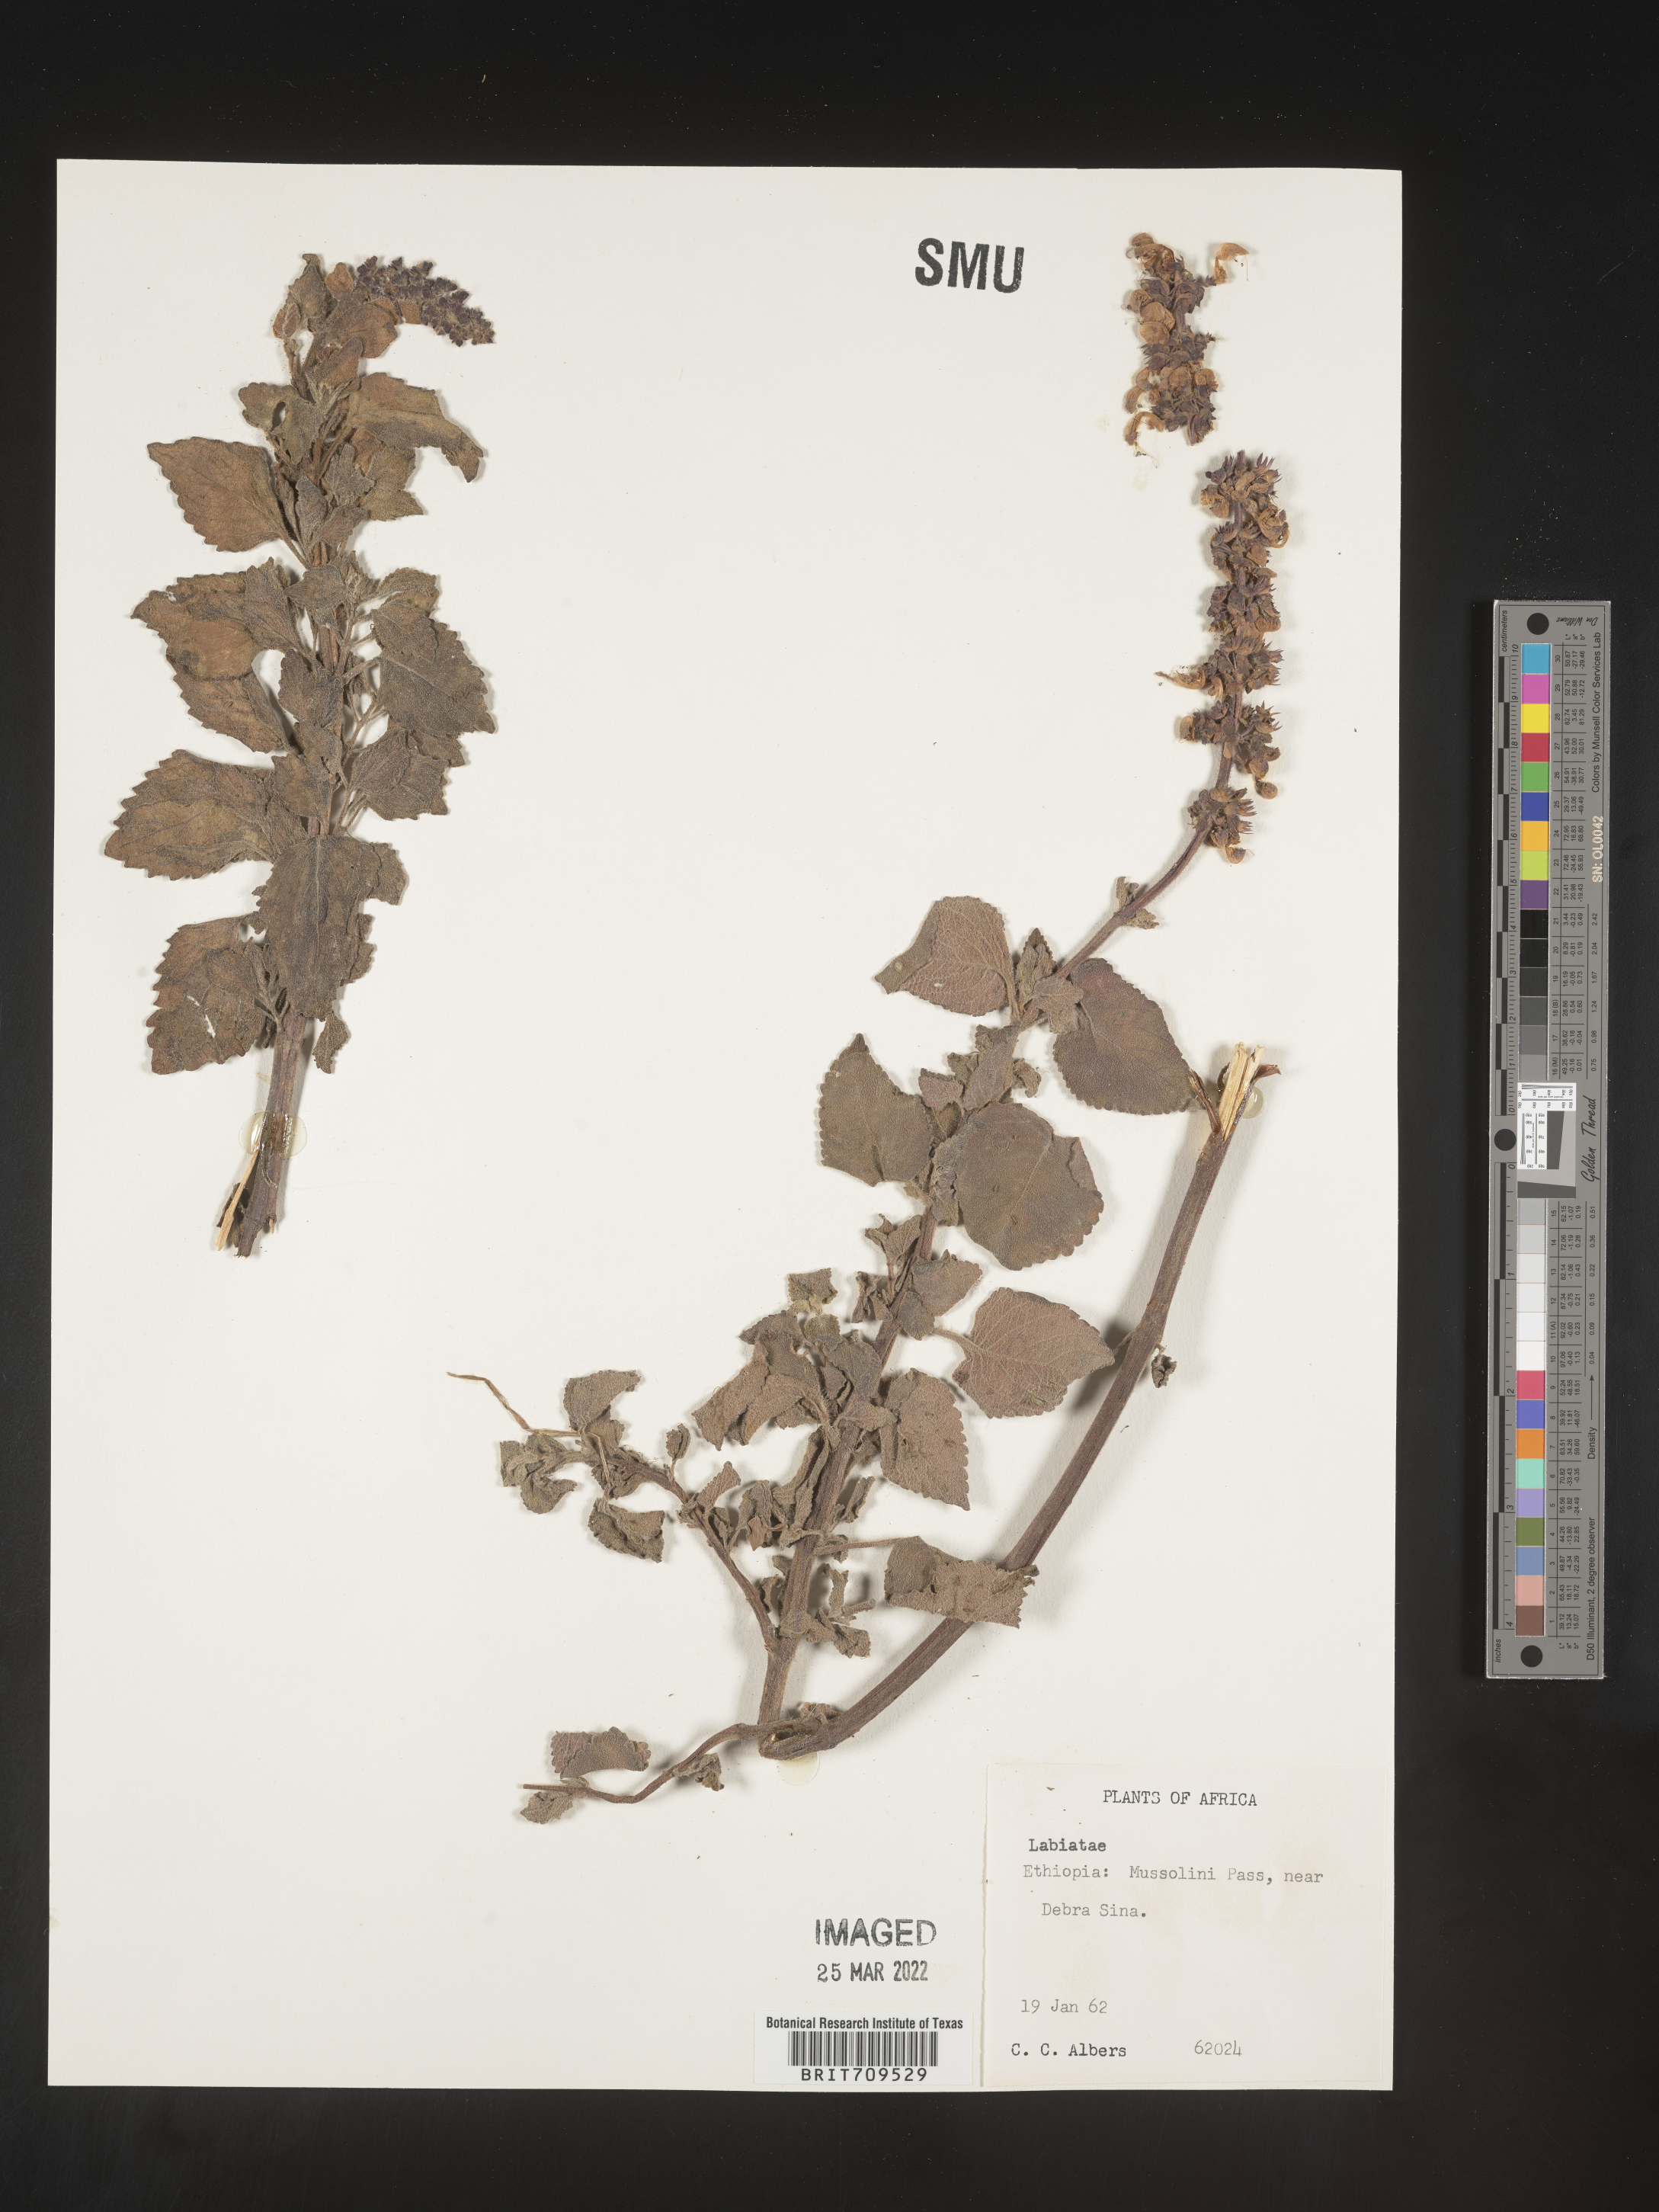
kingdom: Plantae
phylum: Tracheophyta
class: Magnoliopsida
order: Lamiales
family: Lamiaceae
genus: Salvia
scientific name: Salvia
